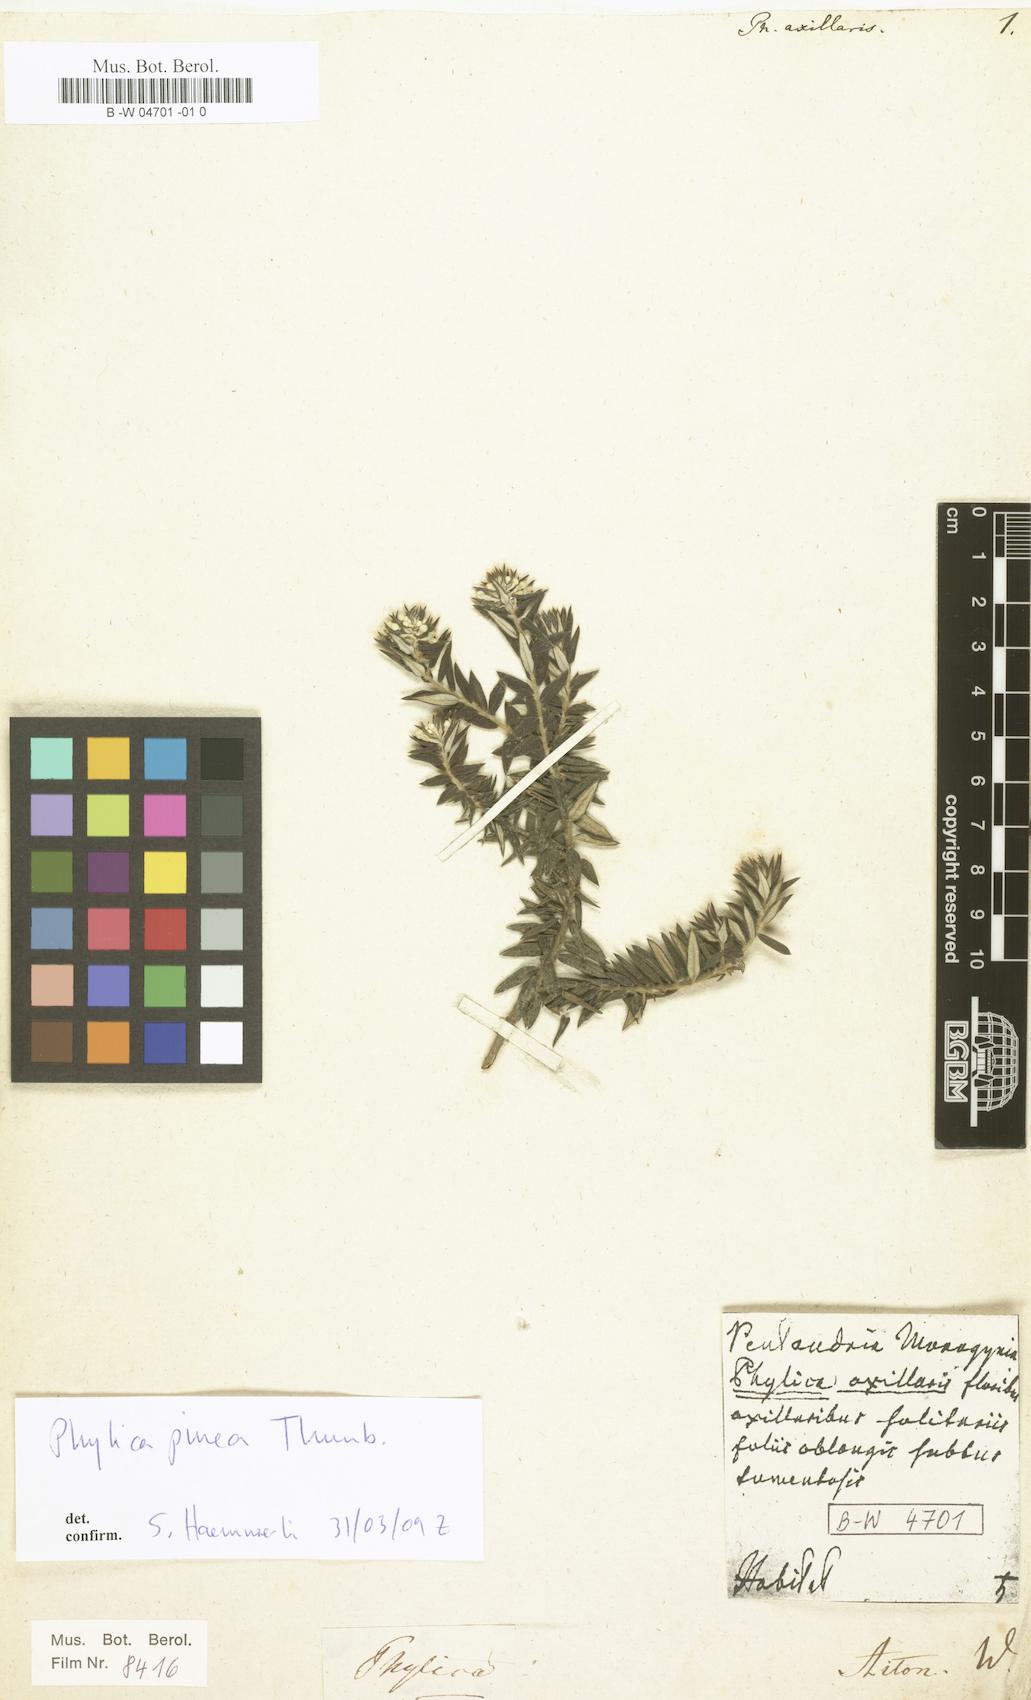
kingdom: Plantae
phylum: Tracheophyta
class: Magnoliopsida
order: Rosales
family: Rhamnaceae
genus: Phylica
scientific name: Phylica axillaris
